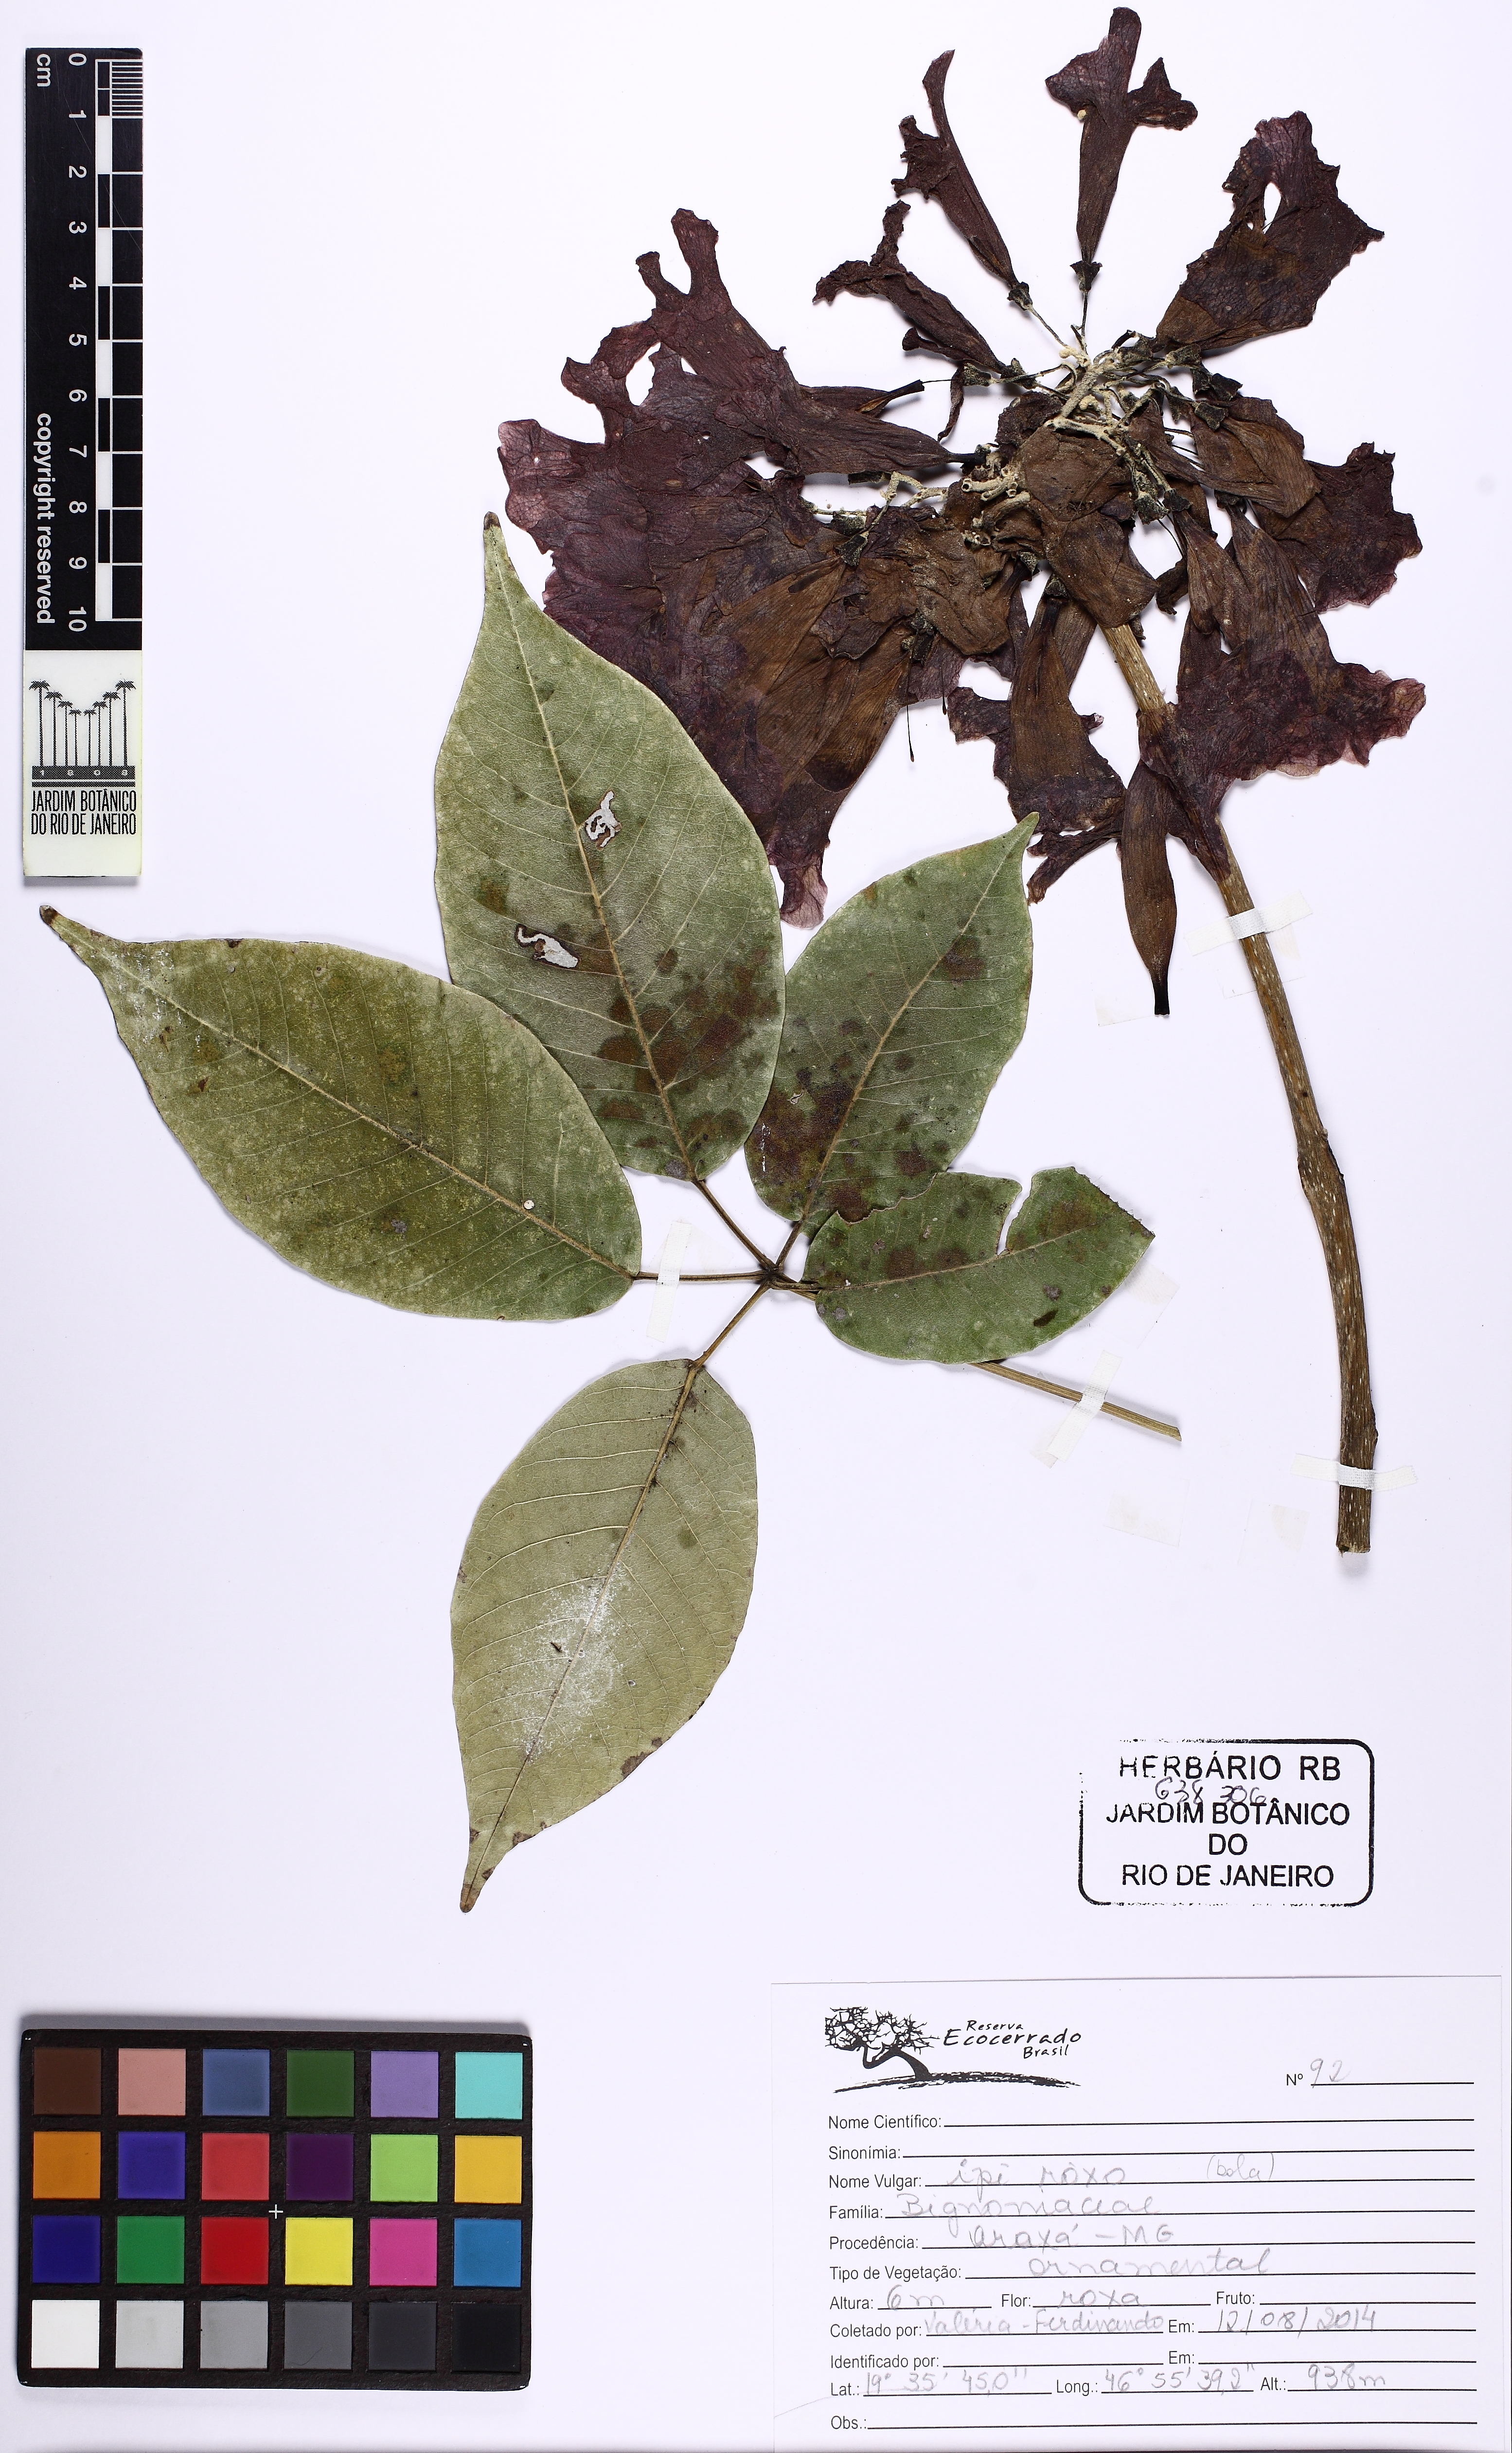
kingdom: Plantae
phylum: Tracheophyta
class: Magnoliopsida
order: Lamiales
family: Bignoniaceae
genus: Handroanthus
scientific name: Handroanthus
